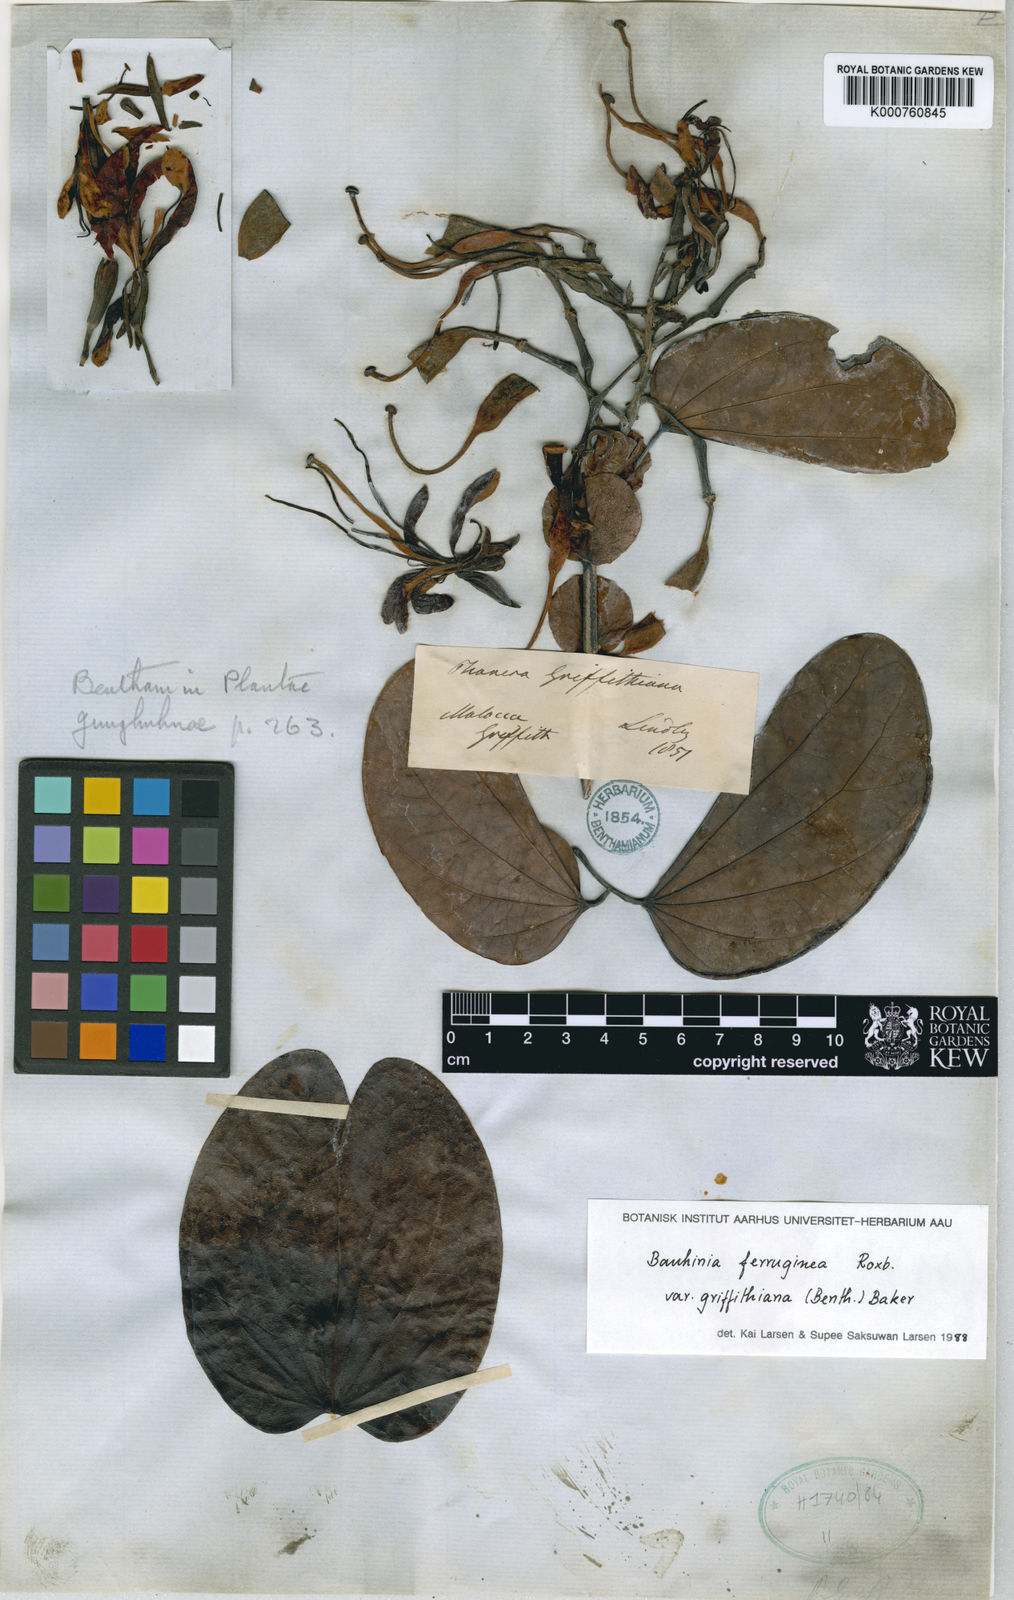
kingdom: Plantae
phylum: Tracheophyta
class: Magnoliopsida
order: Fabales
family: Fabaceae
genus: Phanera
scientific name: Phanera ferruginea
